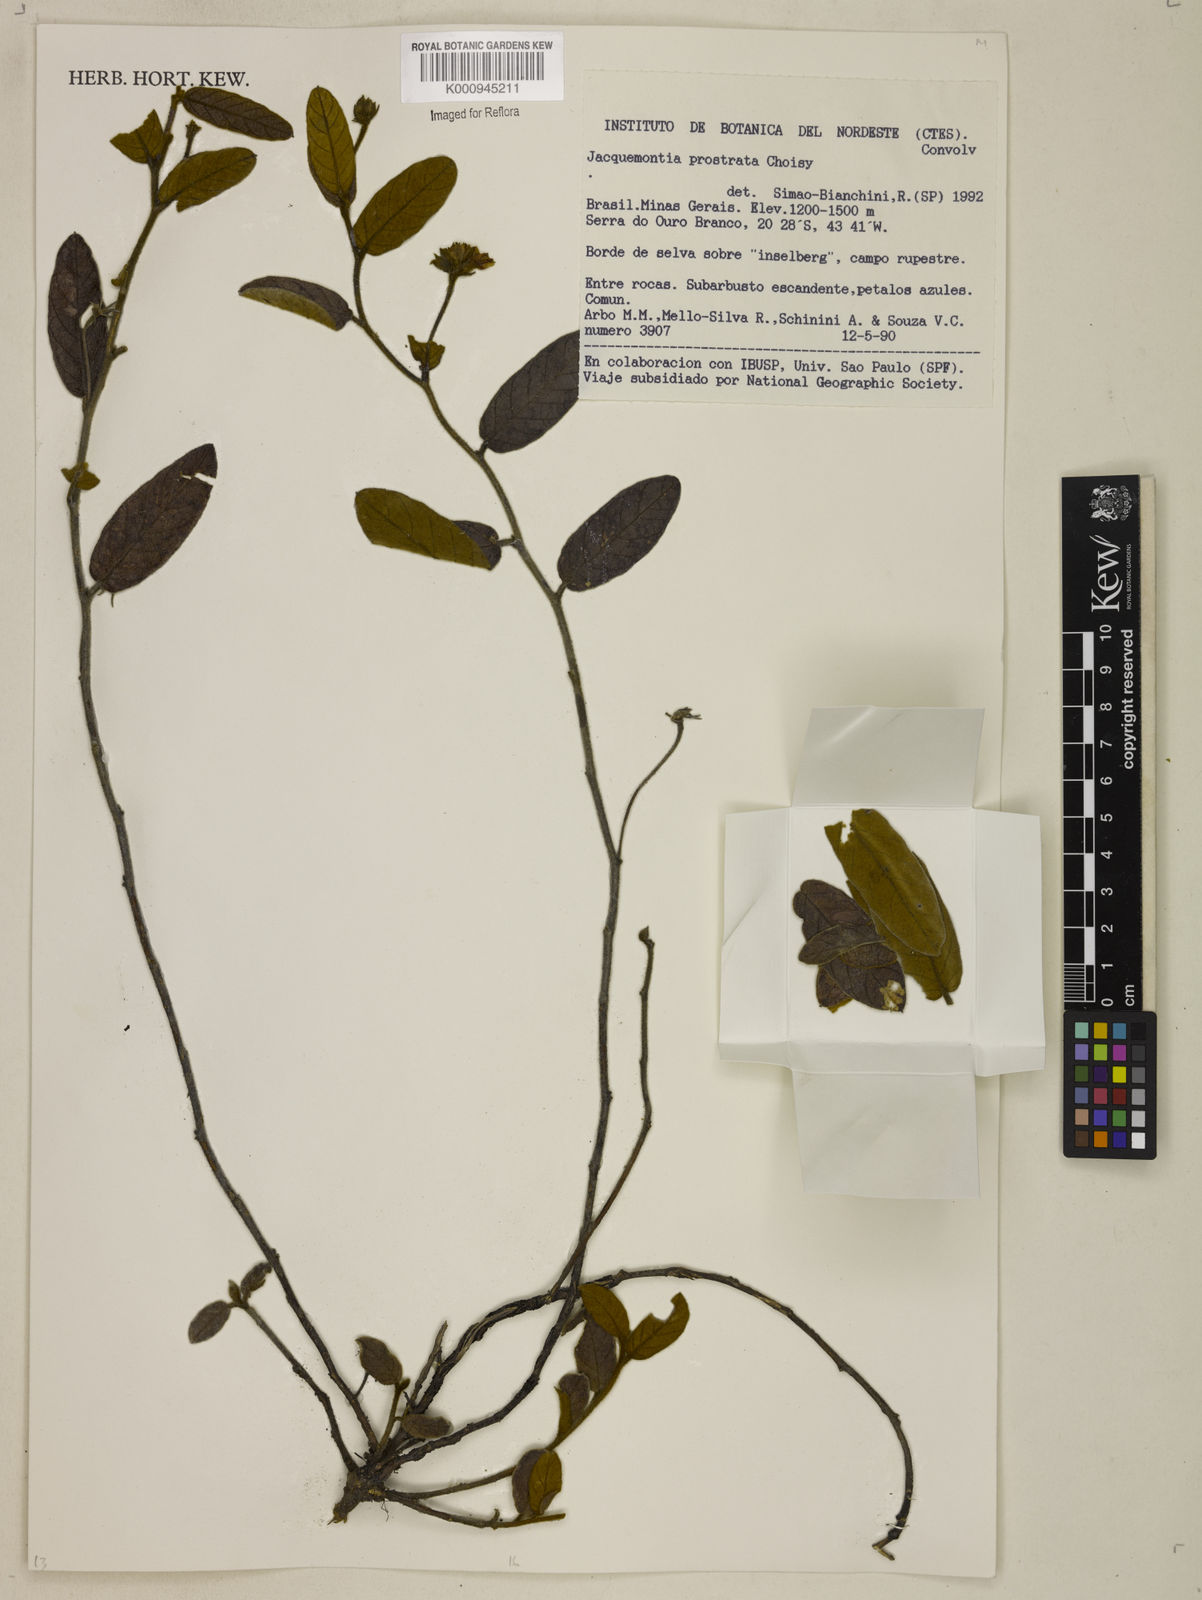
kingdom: Plantae
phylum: Tracheophyta
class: Magnoliopsida
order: Solanales
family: Convolvulaceae
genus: Jacquemontia
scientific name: Jacquemontia prostrata
